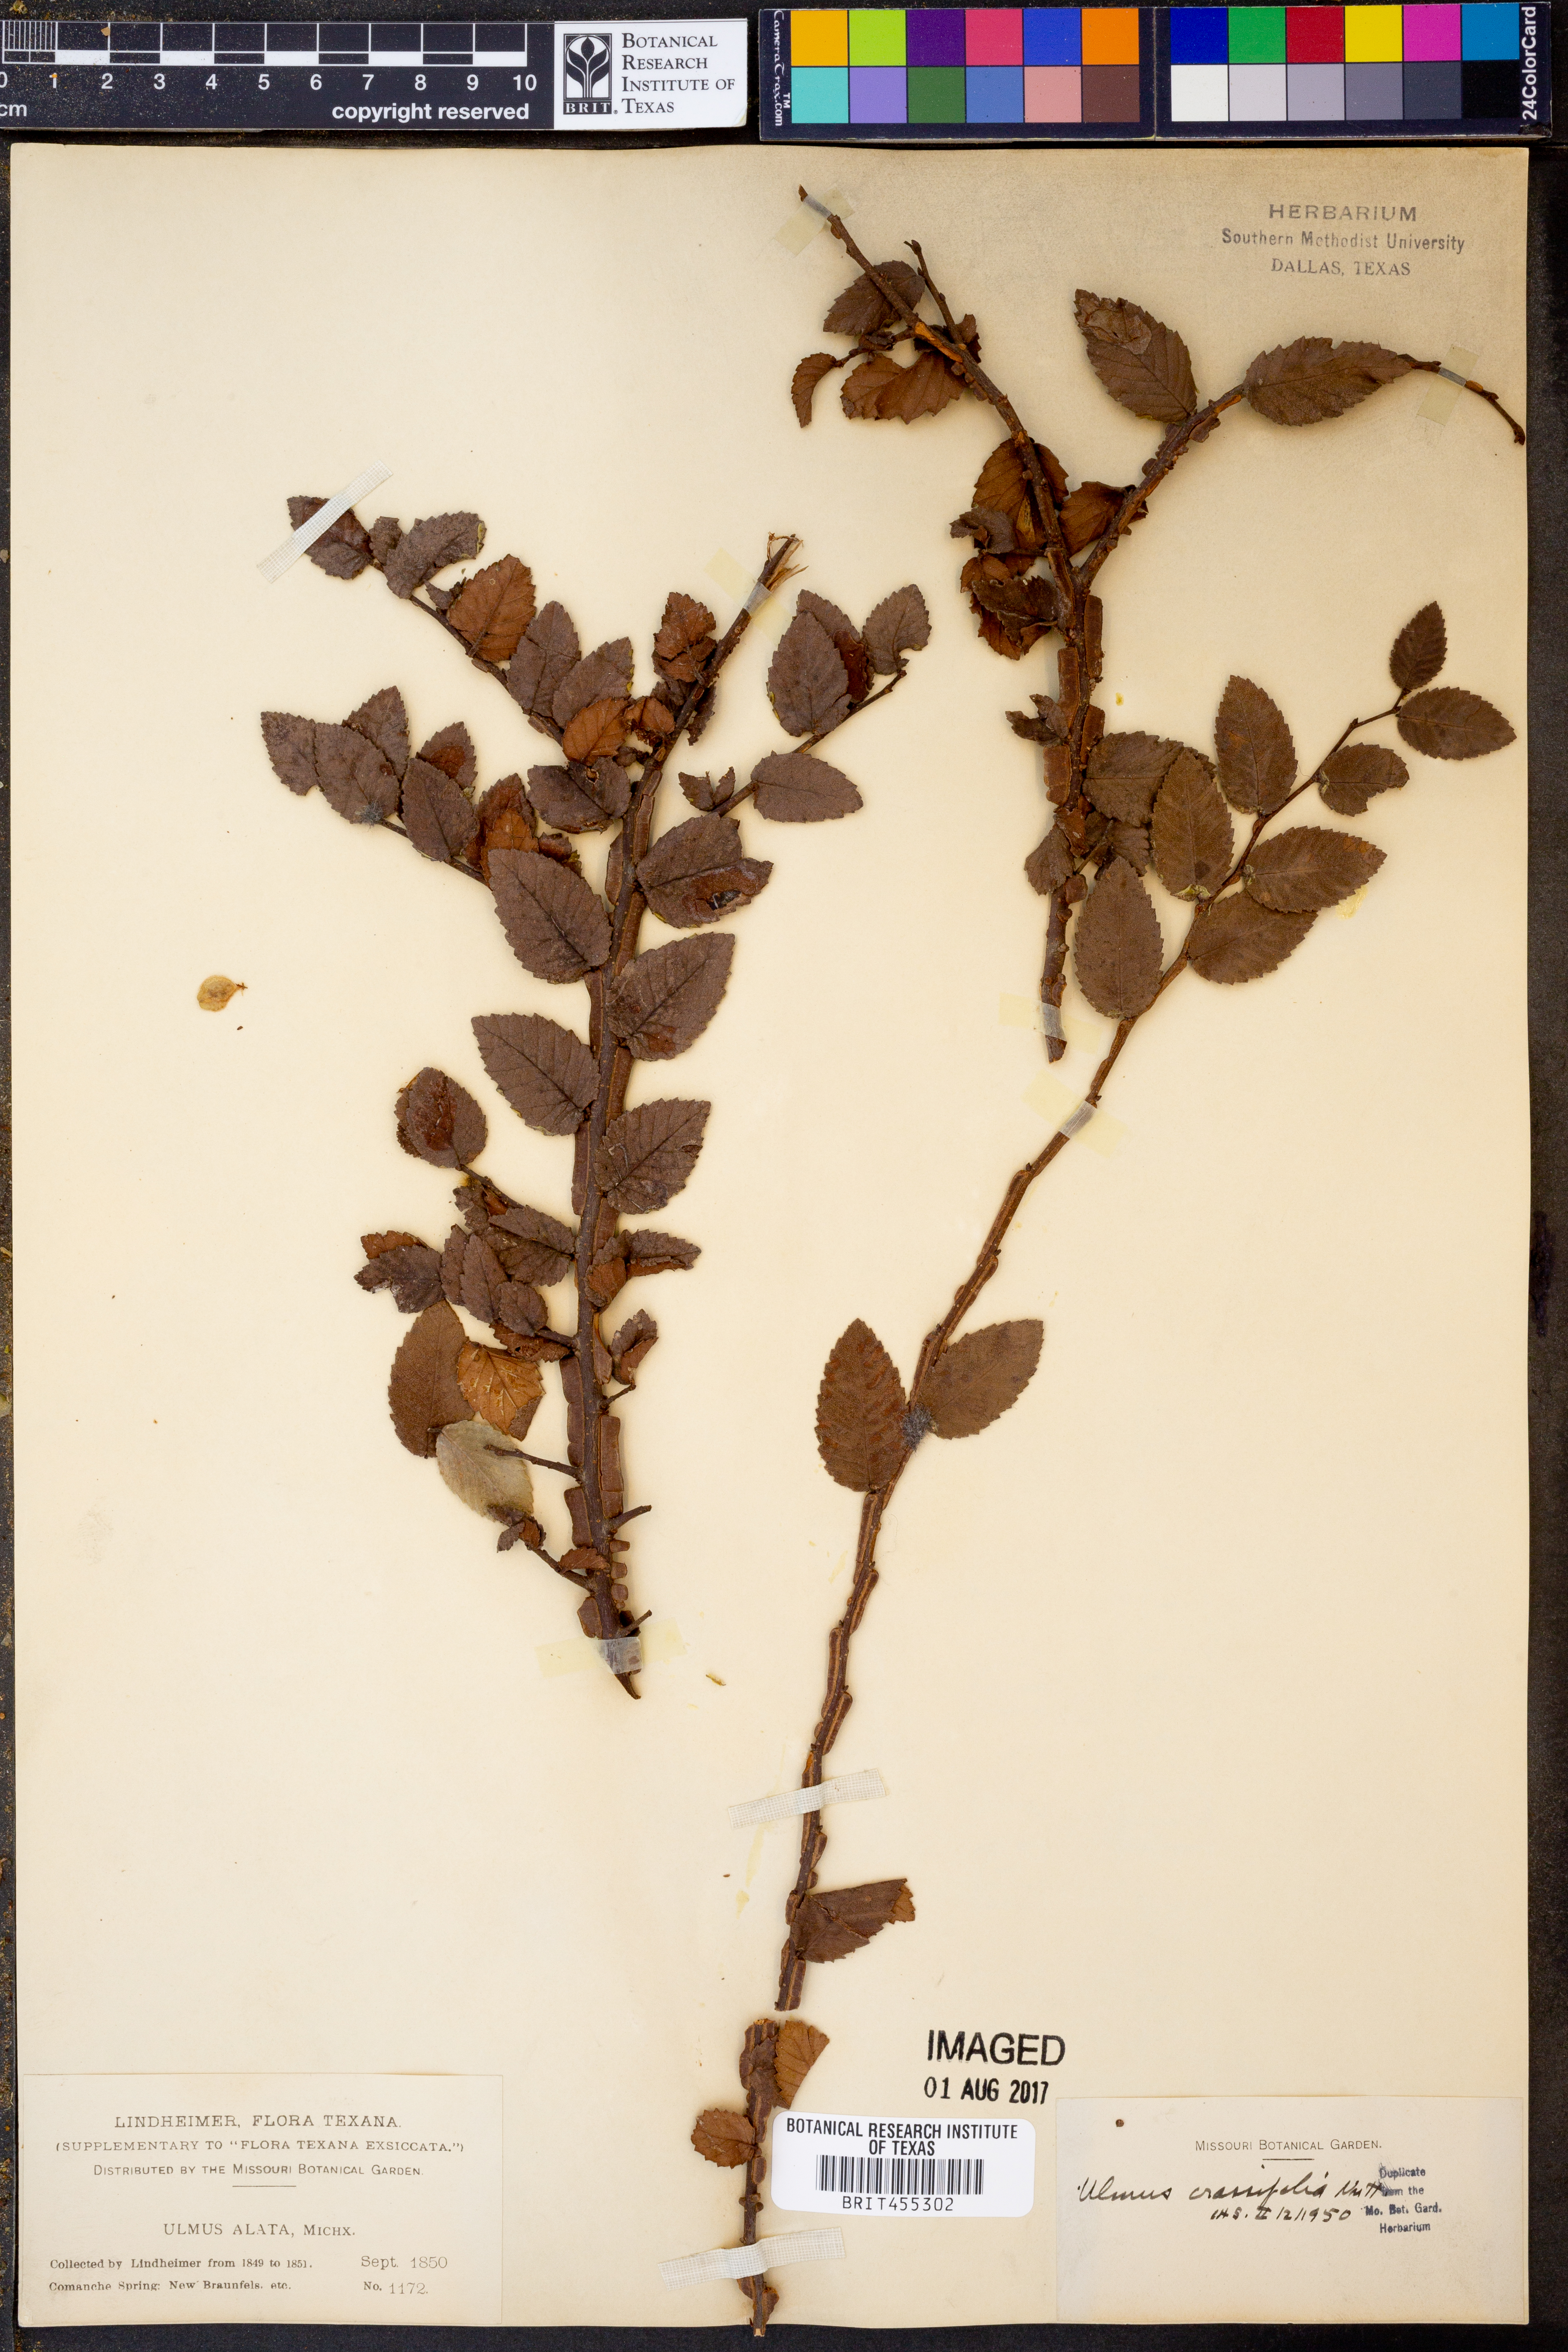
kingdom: Plantae
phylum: Tracheophyta
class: Magnoliopsida
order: Rosales
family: Ulmaceae
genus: Ulmus
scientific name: Ulmus crassifolia
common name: Basket elm
